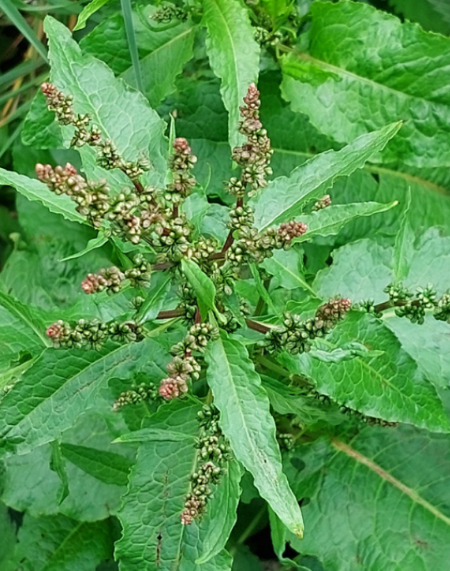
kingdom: Plantae
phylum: Tracheophyta
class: Magnoliopsida
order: Caryophyllales
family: Polygonaceae
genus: Rumex
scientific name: Rumex obtusifolius
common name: Butbladet skræppe
